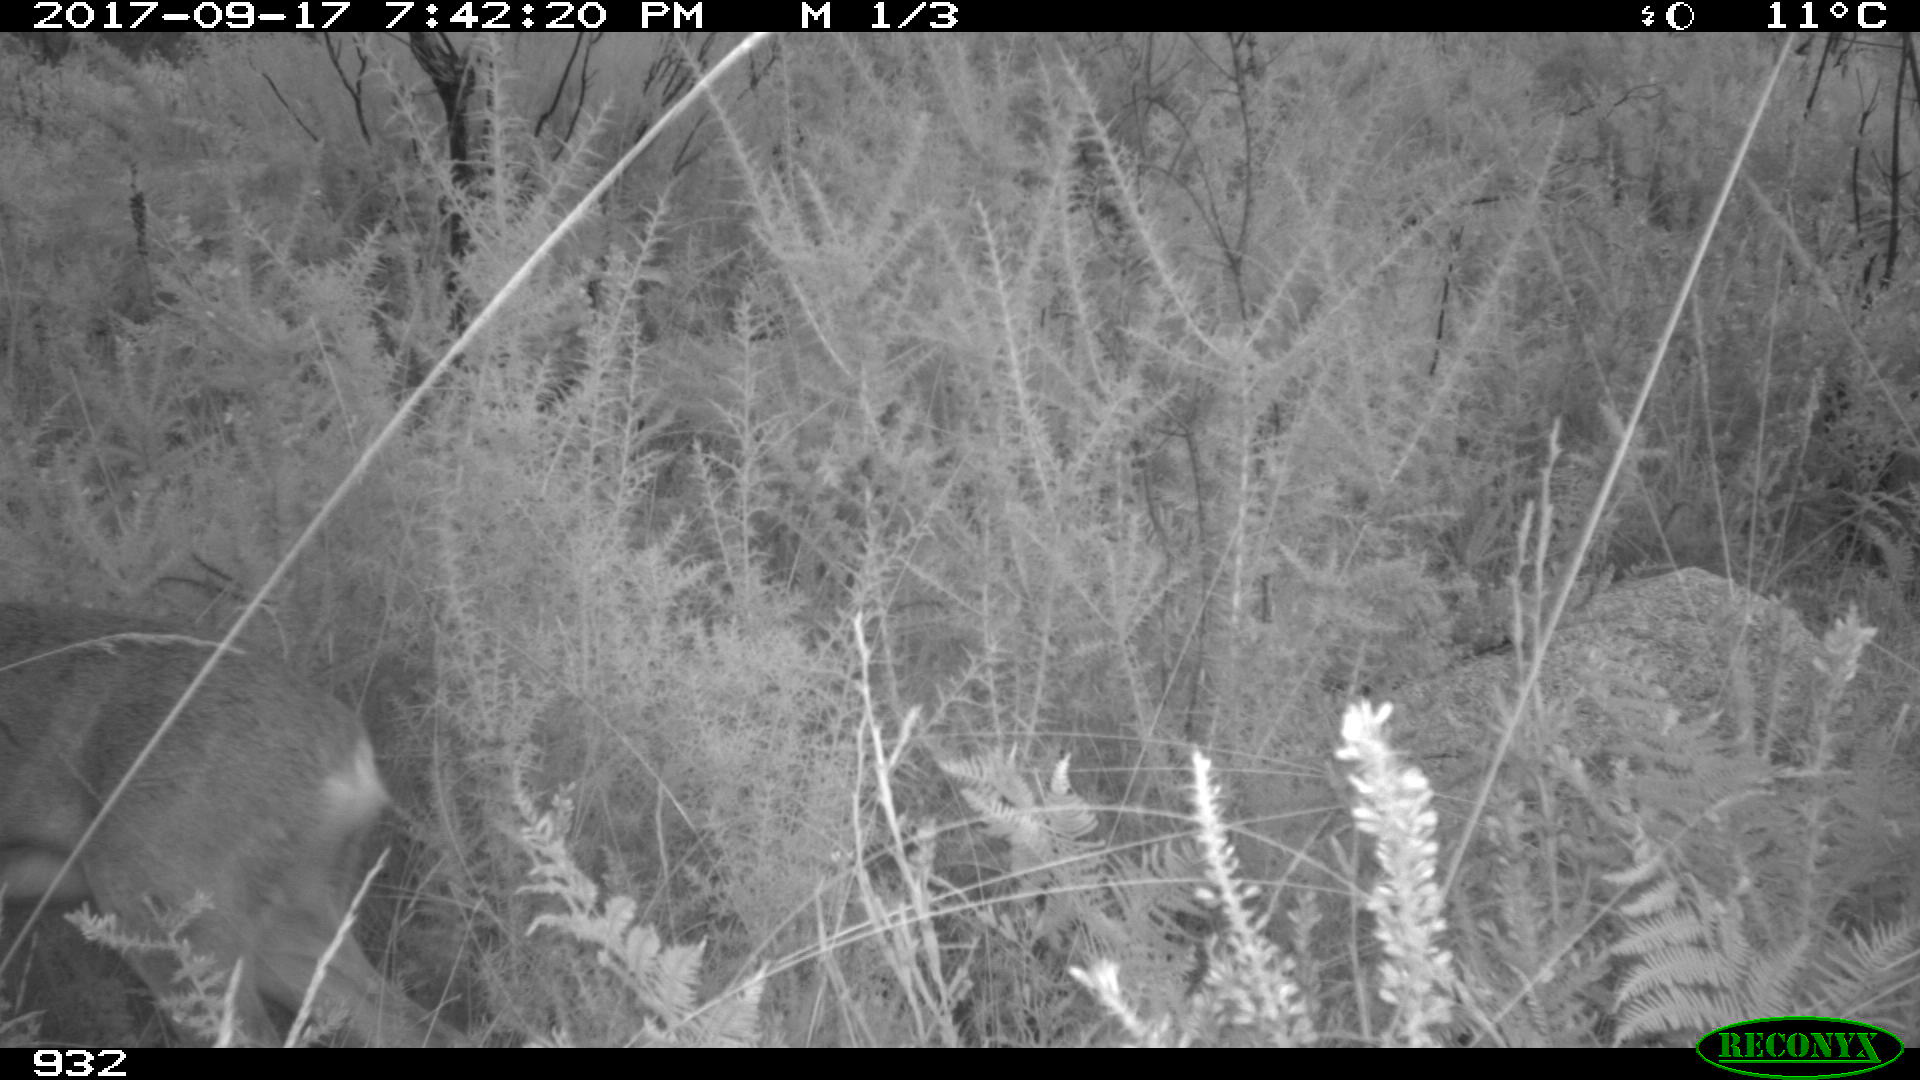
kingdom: Animalia
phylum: Chordata
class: Mammalia
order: Artiodactyla
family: Cervidae
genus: Capreolus
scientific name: Capreolus capreolus
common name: Western roe deer
